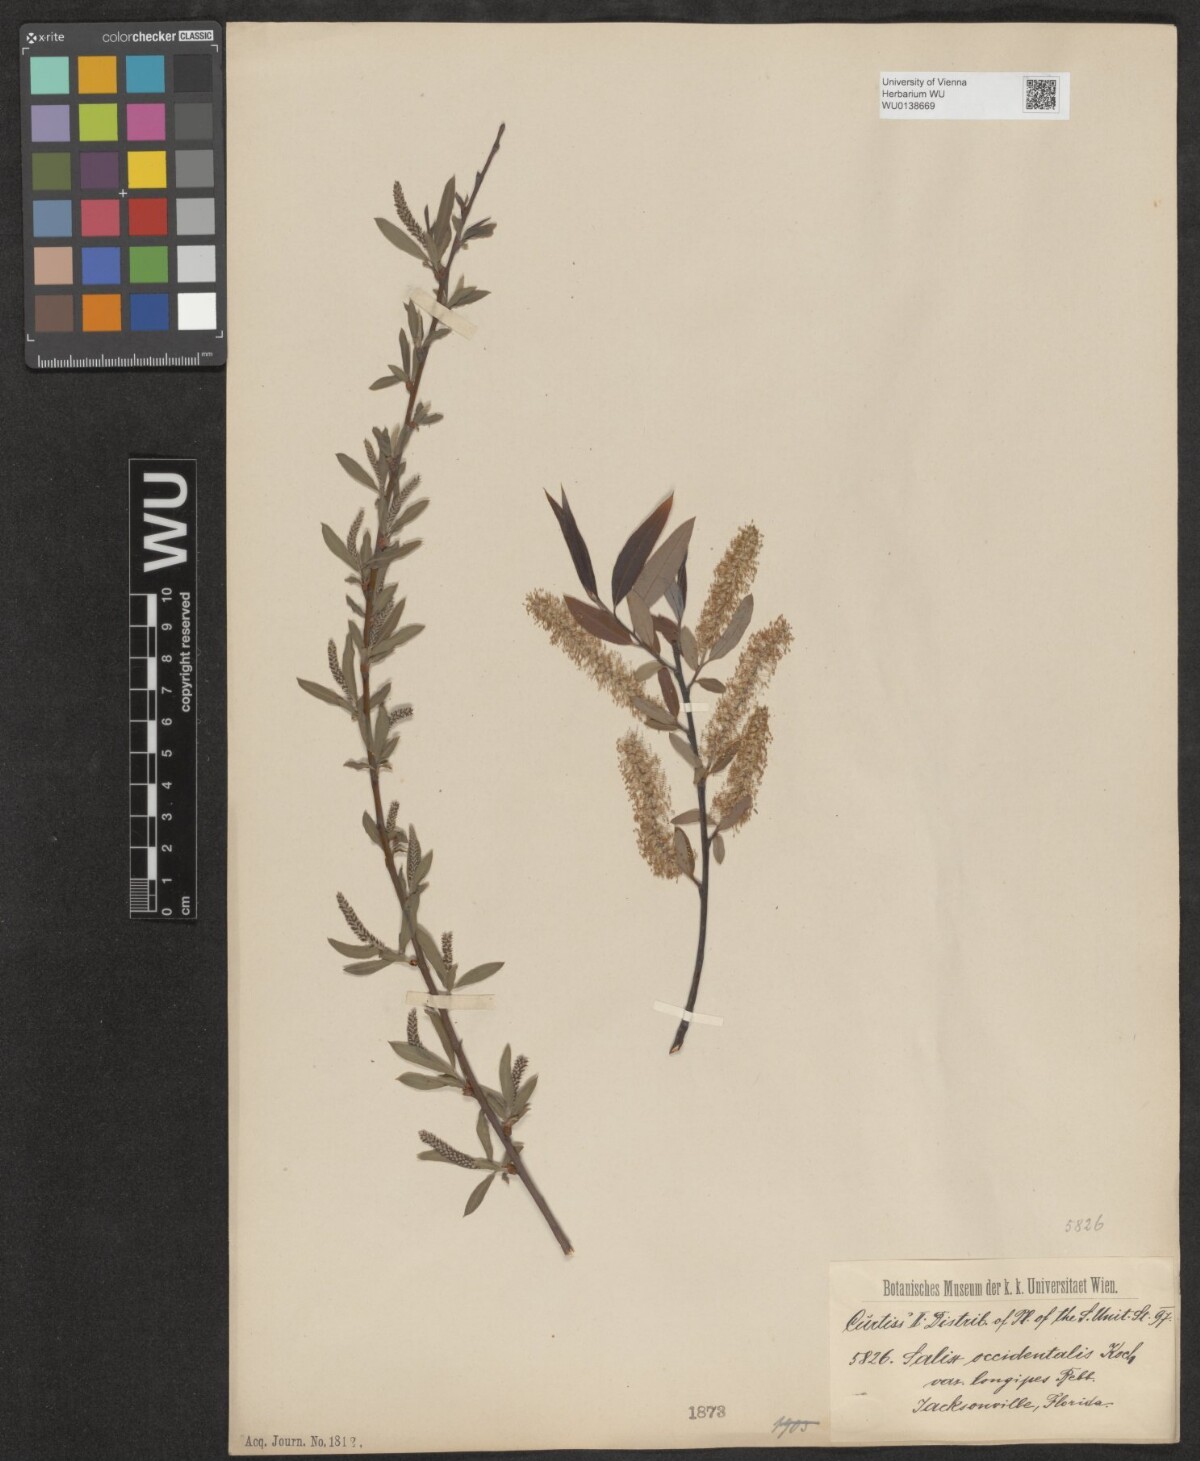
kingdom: Plantae
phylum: Tracheophyta
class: Magnoliopsida
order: Malpighiales
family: Salicaceae
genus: Salix
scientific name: Salix humilis
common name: Prairie willow
